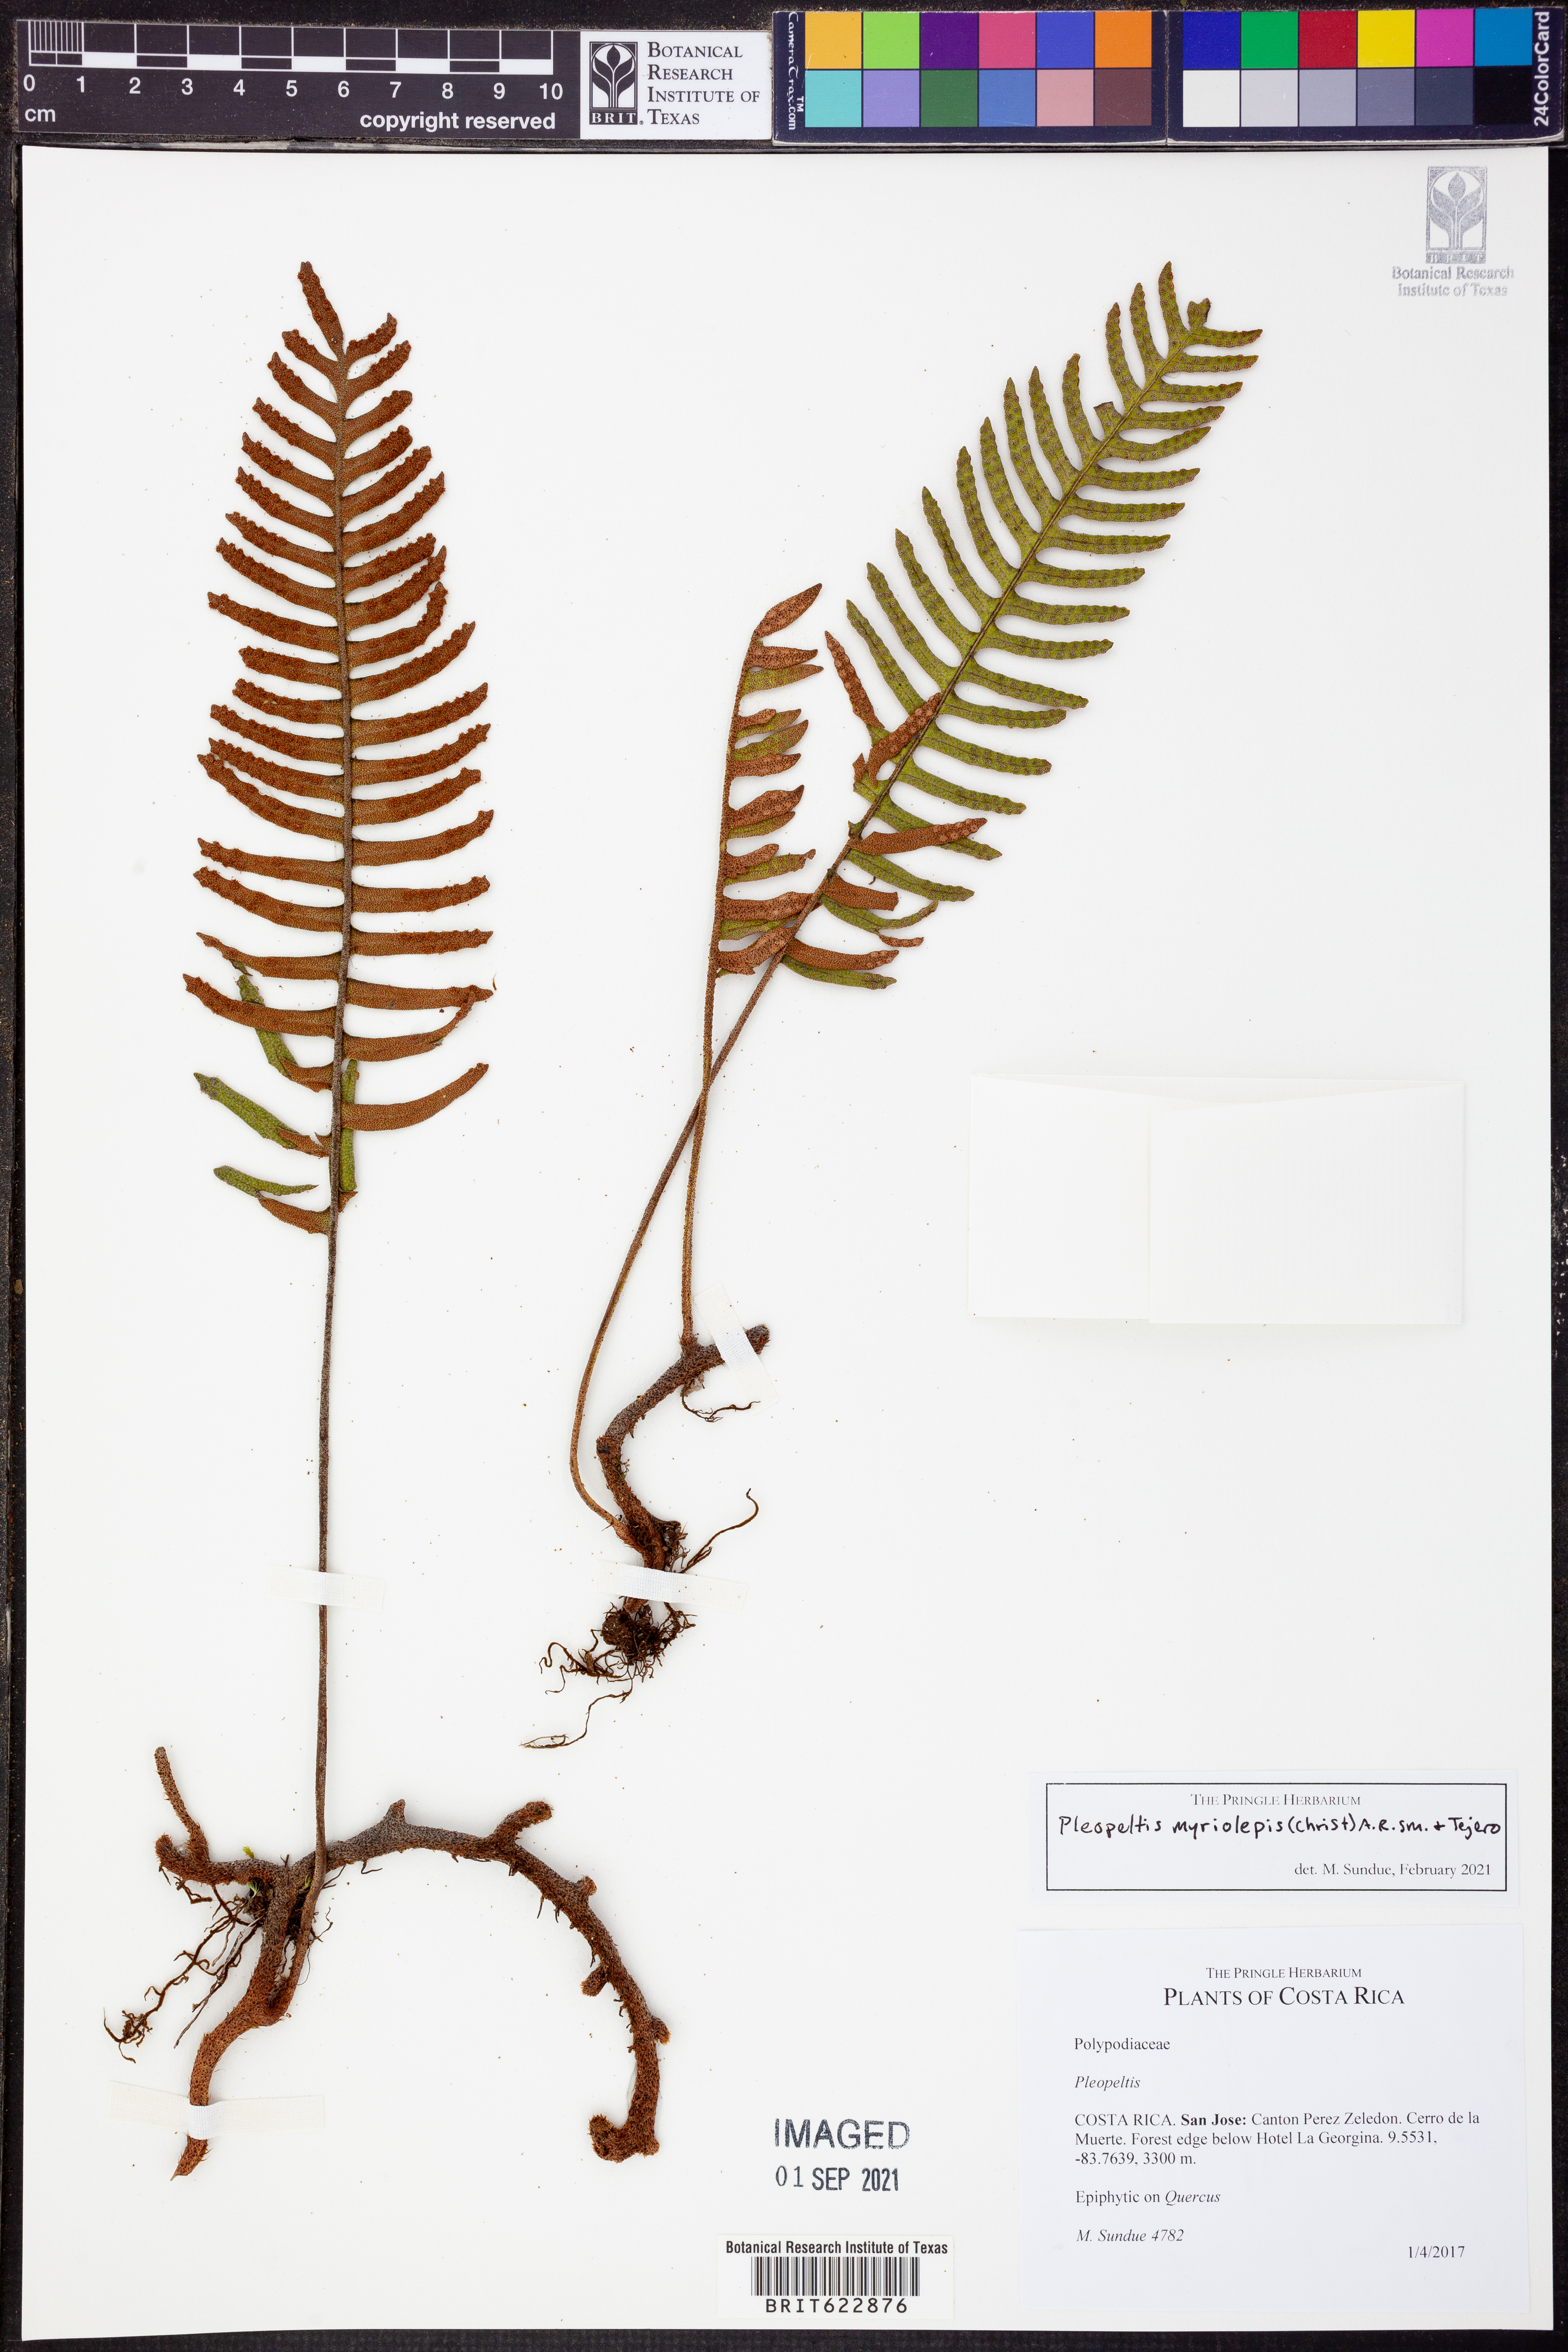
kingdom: Plantae
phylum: Tracheophyta
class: Polypodiopsida
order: Polypodiales
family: Polypodiaceae
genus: Pleopeltis
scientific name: Pleopeltis myriolepis
